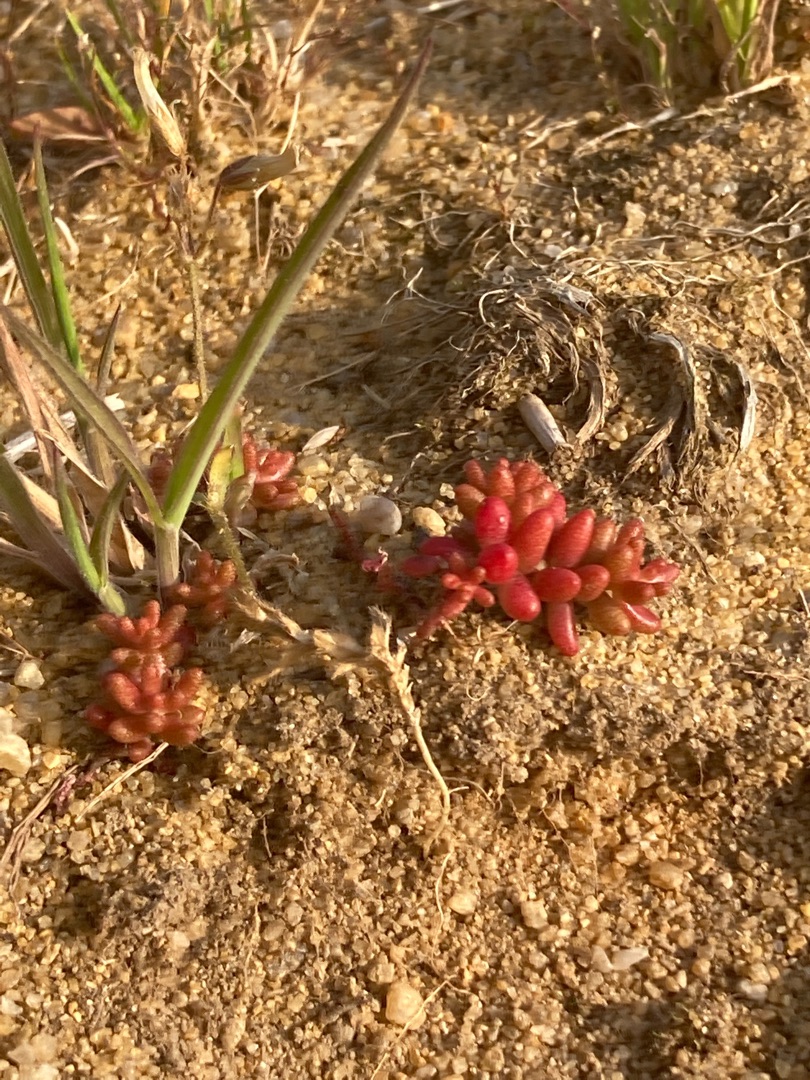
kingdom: Plantae
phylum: Tracheophyta
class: Magnoliopsida
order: Saxifragales
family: Crassulaceae
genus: Sedum
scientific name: Sedum album
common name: Hvid stenurt
